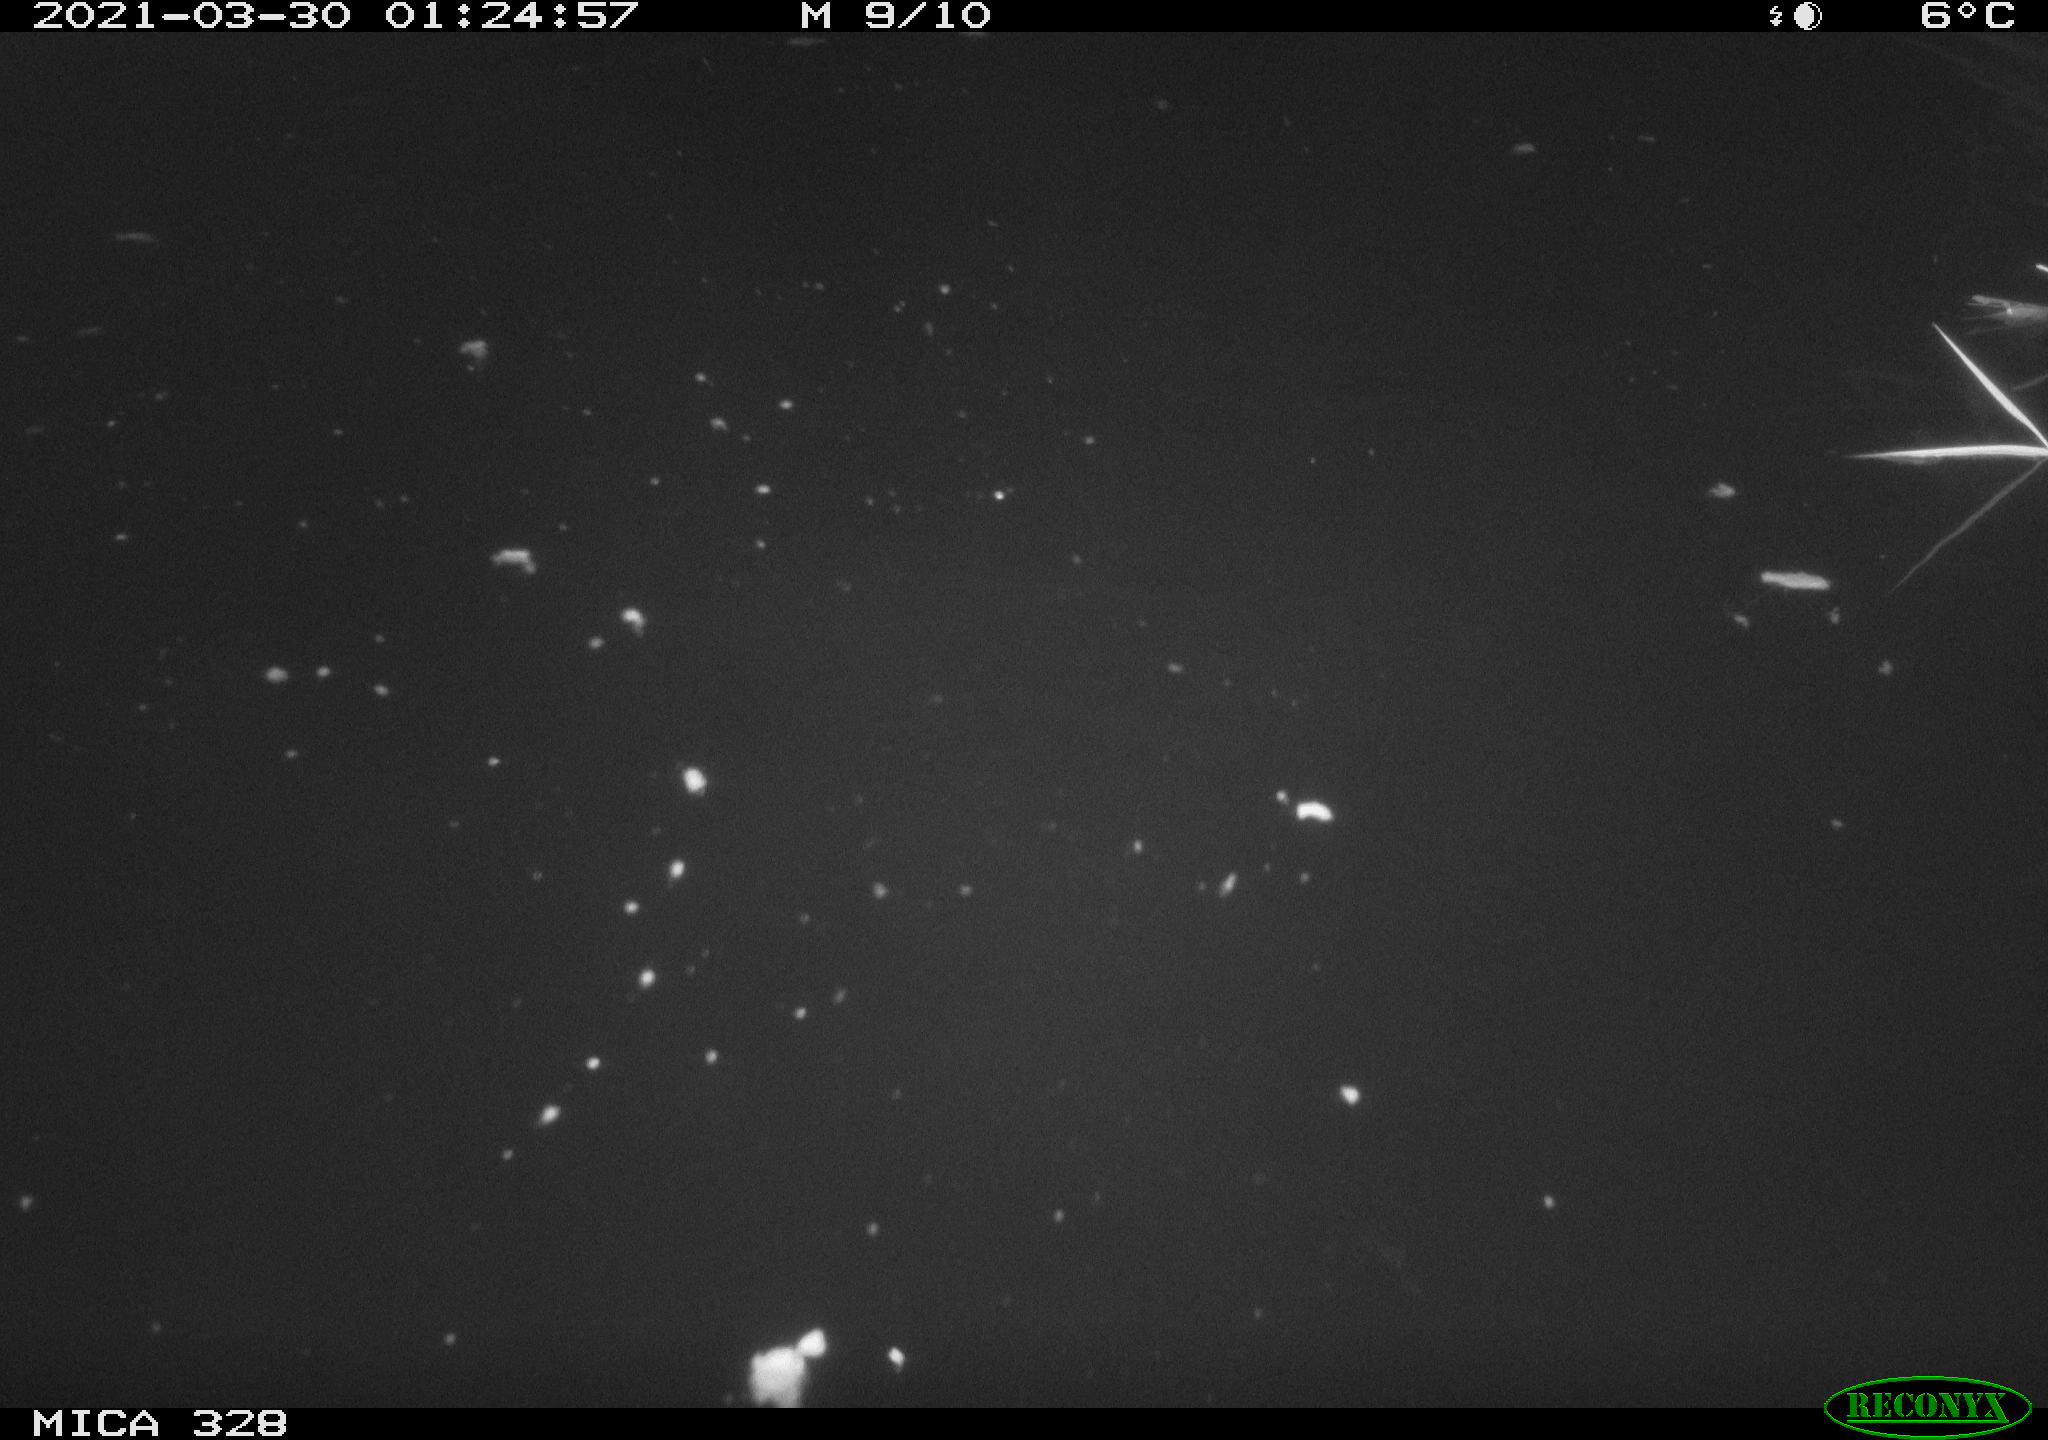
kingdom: Animalia
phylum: Chordata
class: Aves
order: Anseriformes
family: Anatidae
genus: Anas
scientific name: Anas platyrhynchos
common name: Mallard
